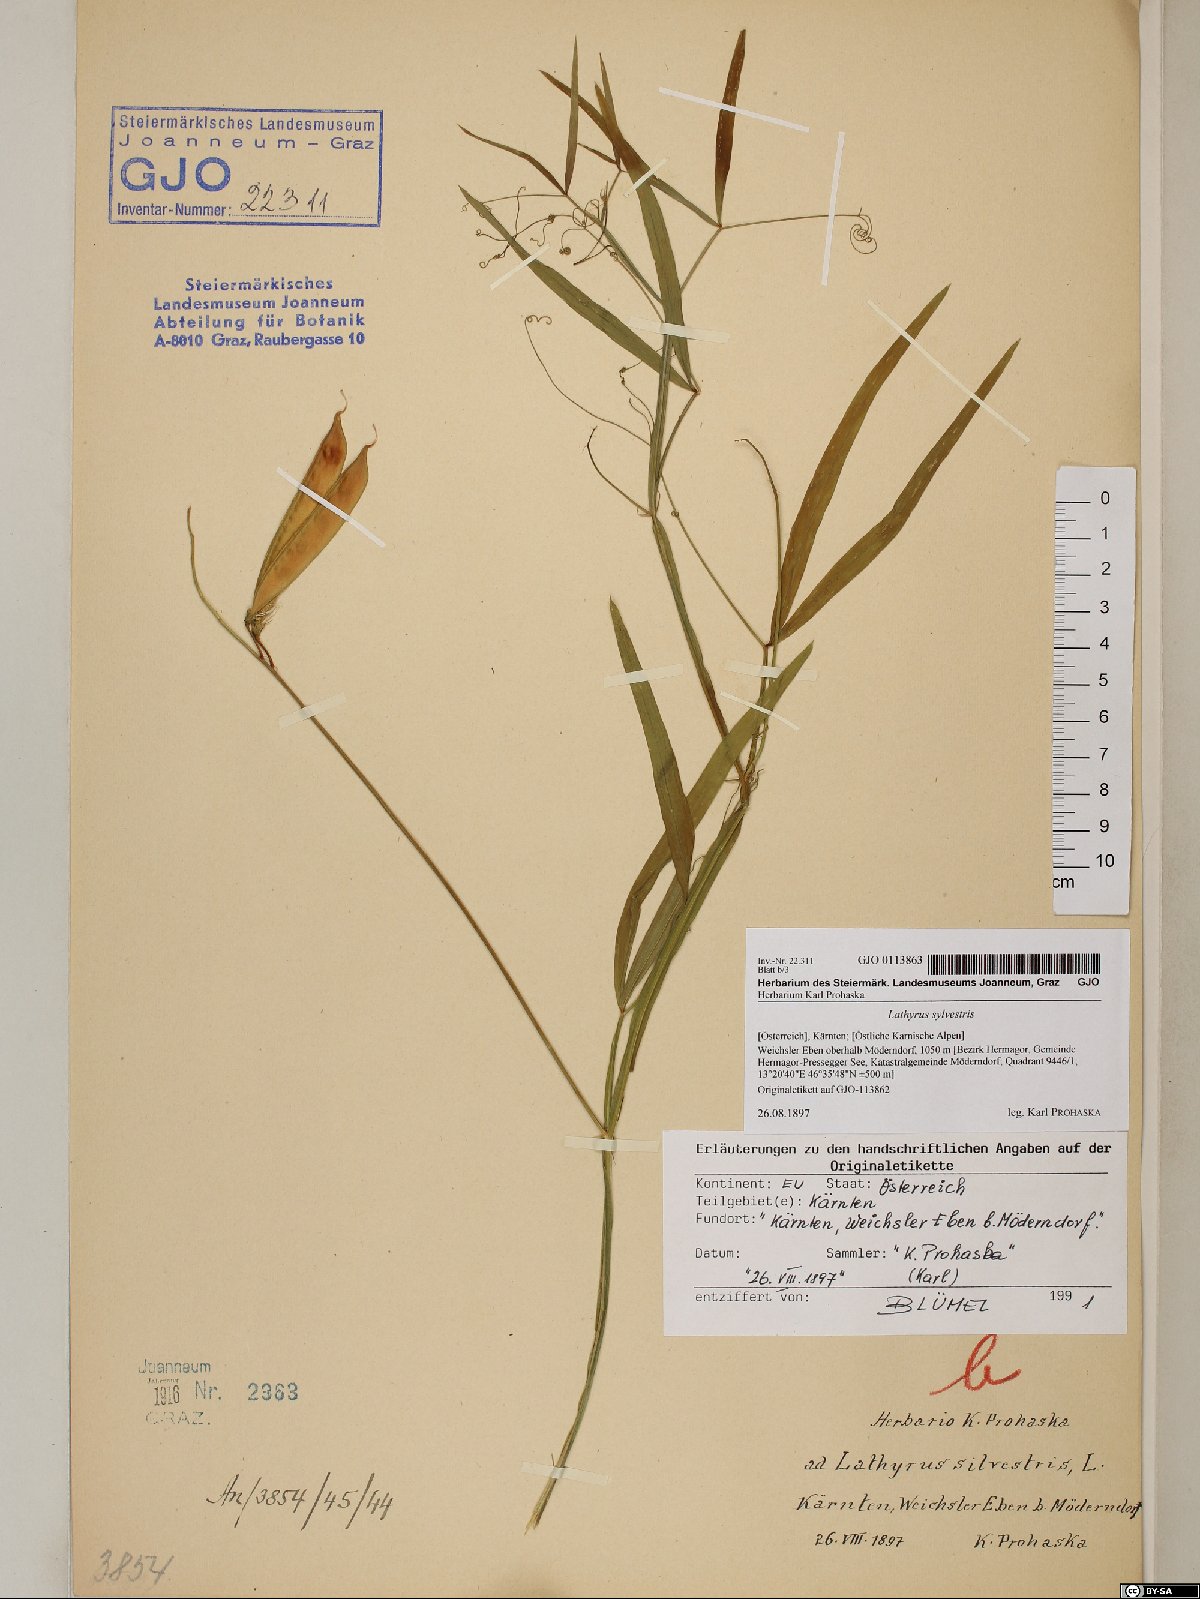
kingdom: Plantae
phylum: Tracheophyta
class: Magnoliopsida
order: Fabales
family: Fabaceae
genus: Lathyrus
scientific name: Lathyrus sylvestris
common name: Flat pea
